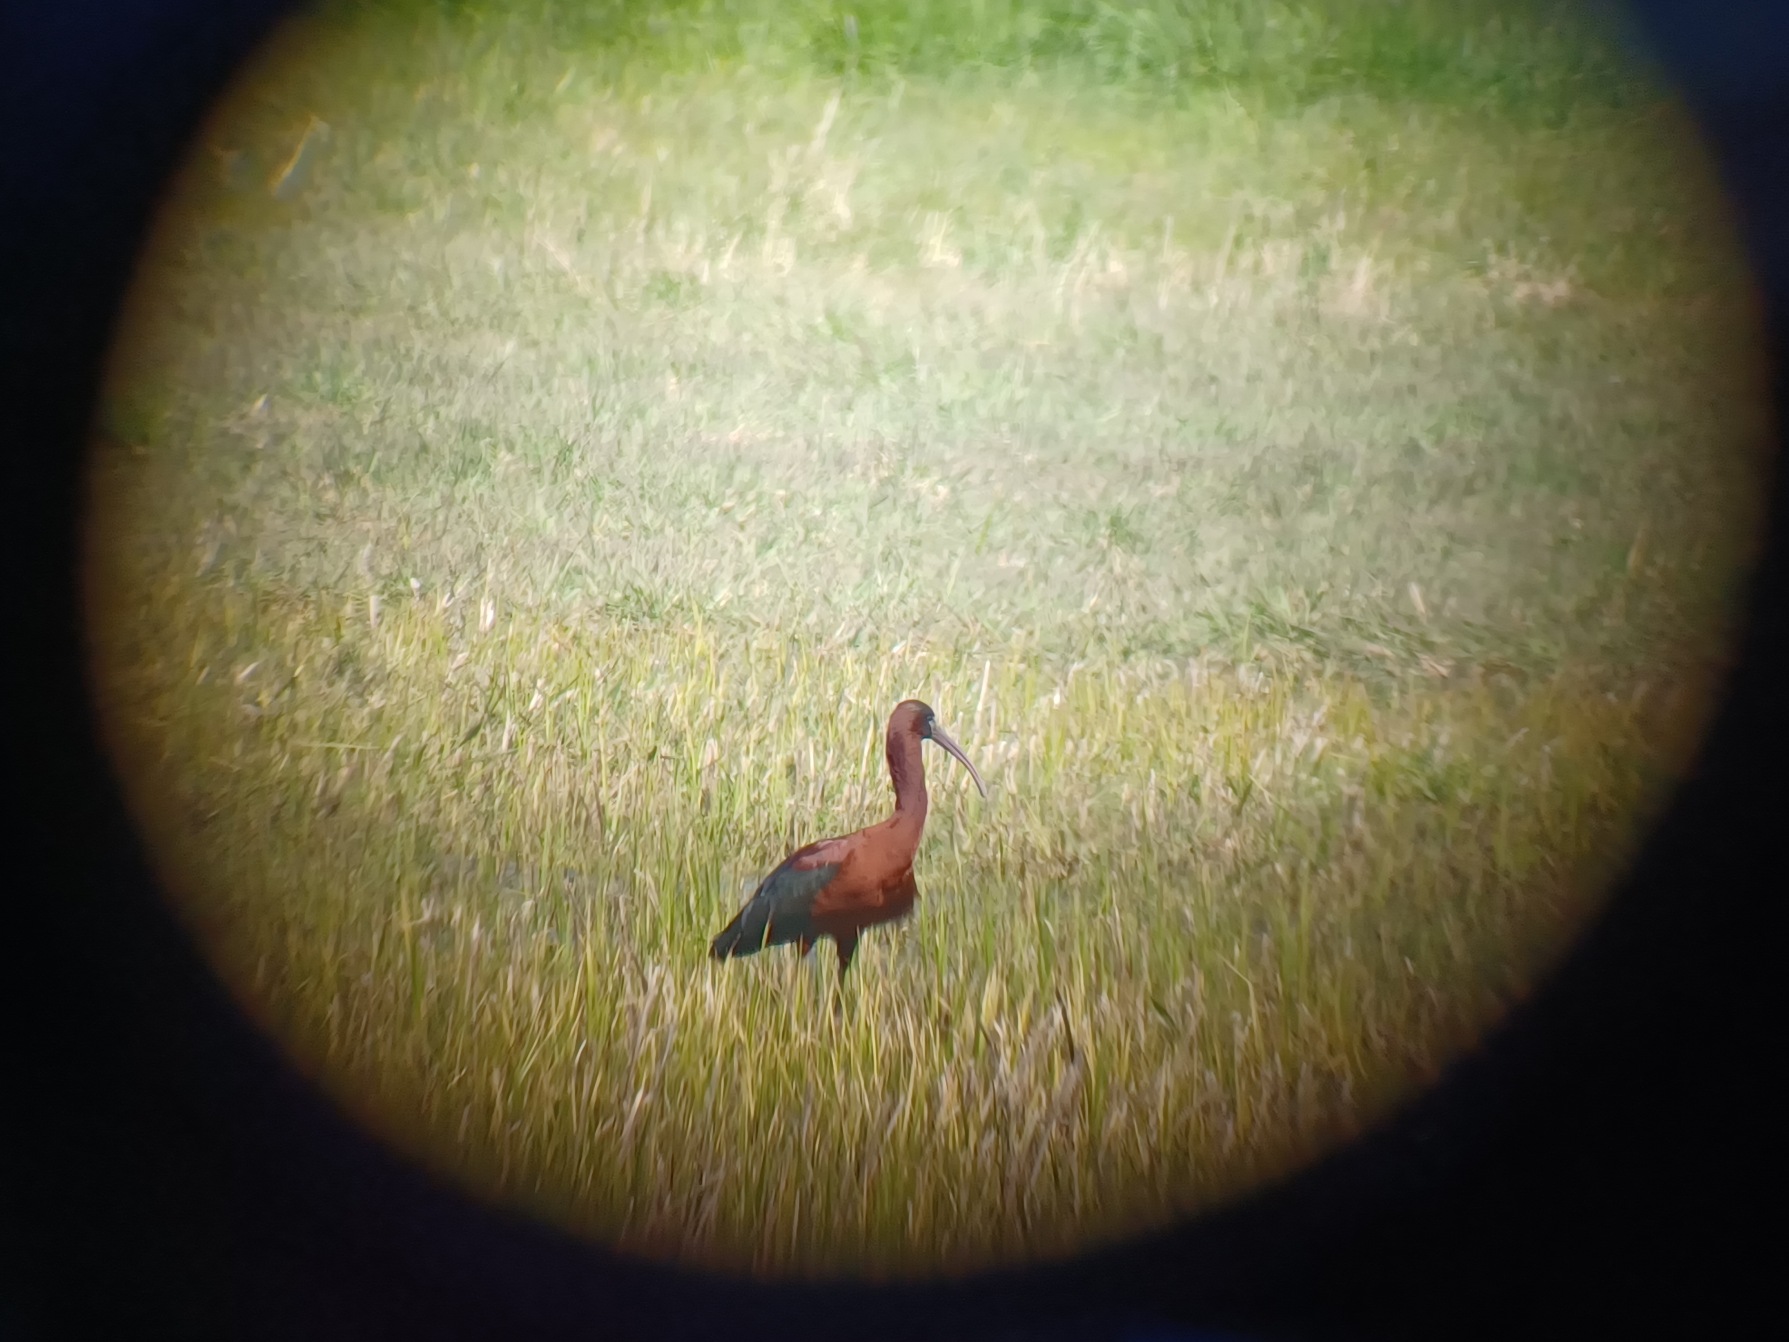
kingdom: Animalia
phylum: Chordata
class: Aves
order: Pelecaniformes
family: Threskiornithidae
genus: Plegadis
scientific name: Plegadis falcinellus
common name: Sort ibis
